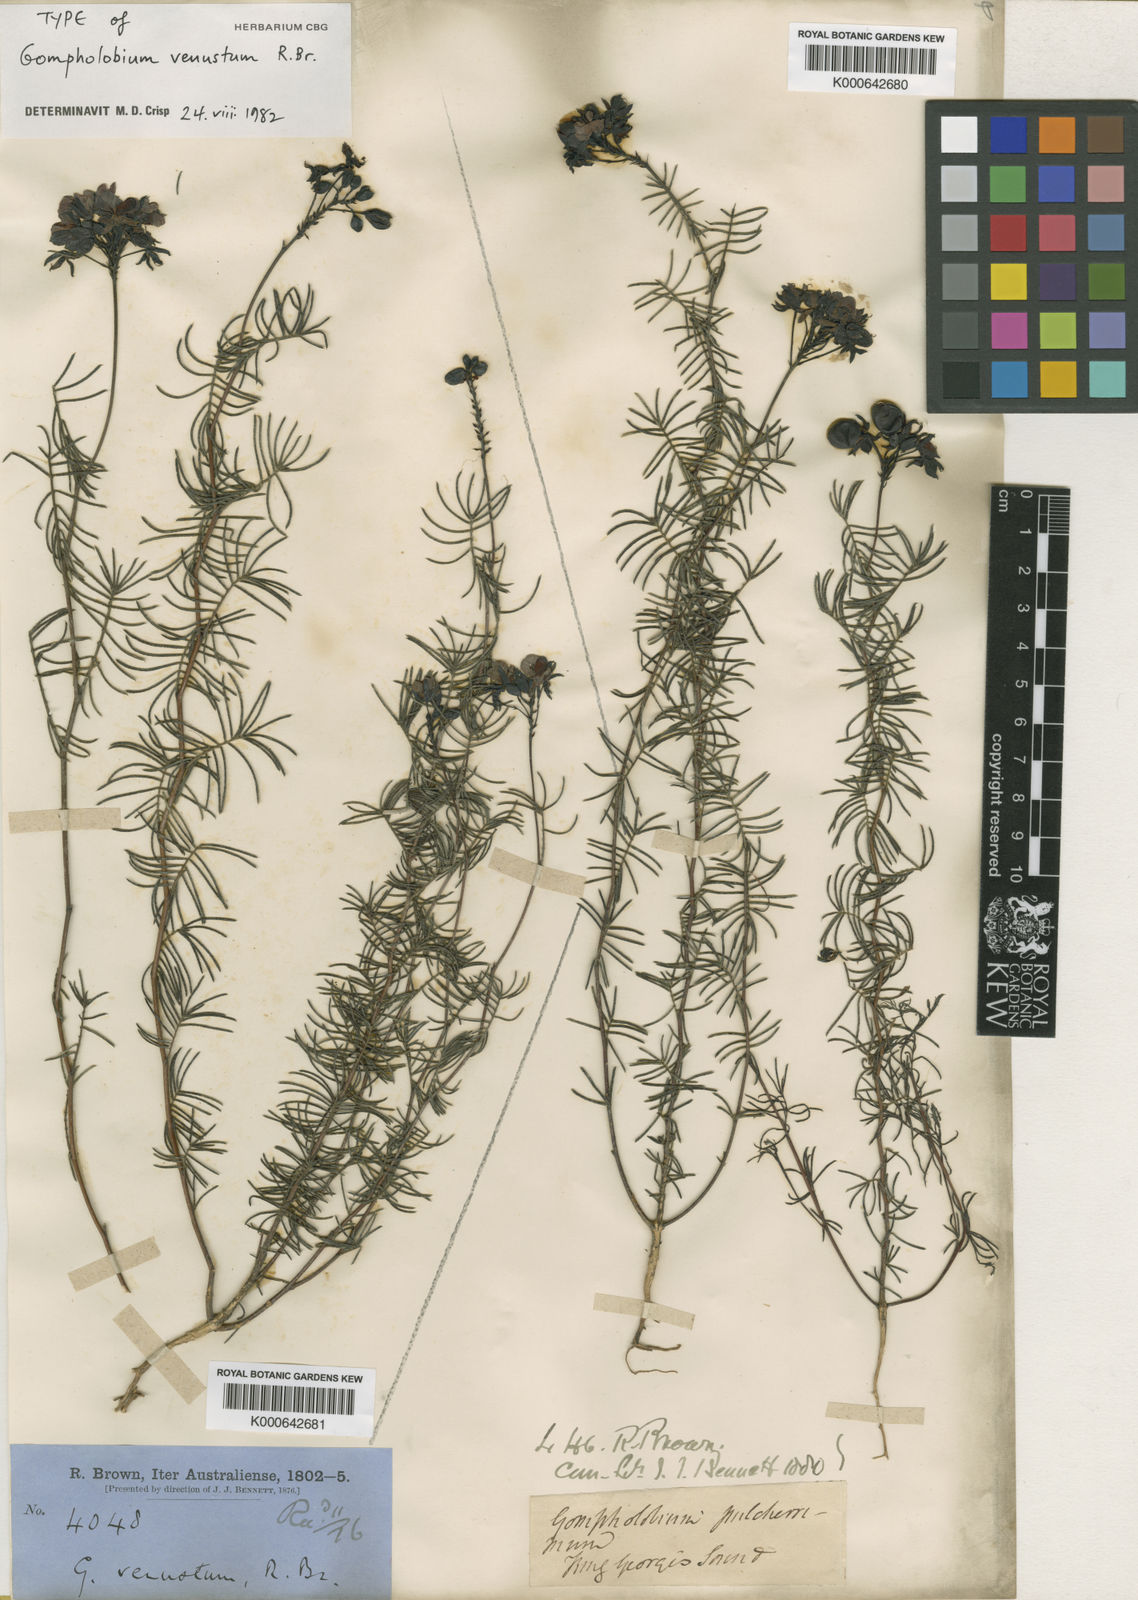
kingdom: Plantae
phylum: Tracheophyta
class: Magnoliopsida
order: Fabales
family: Fabaceae
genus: Gompholobium
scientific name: Gompholobium venustum
